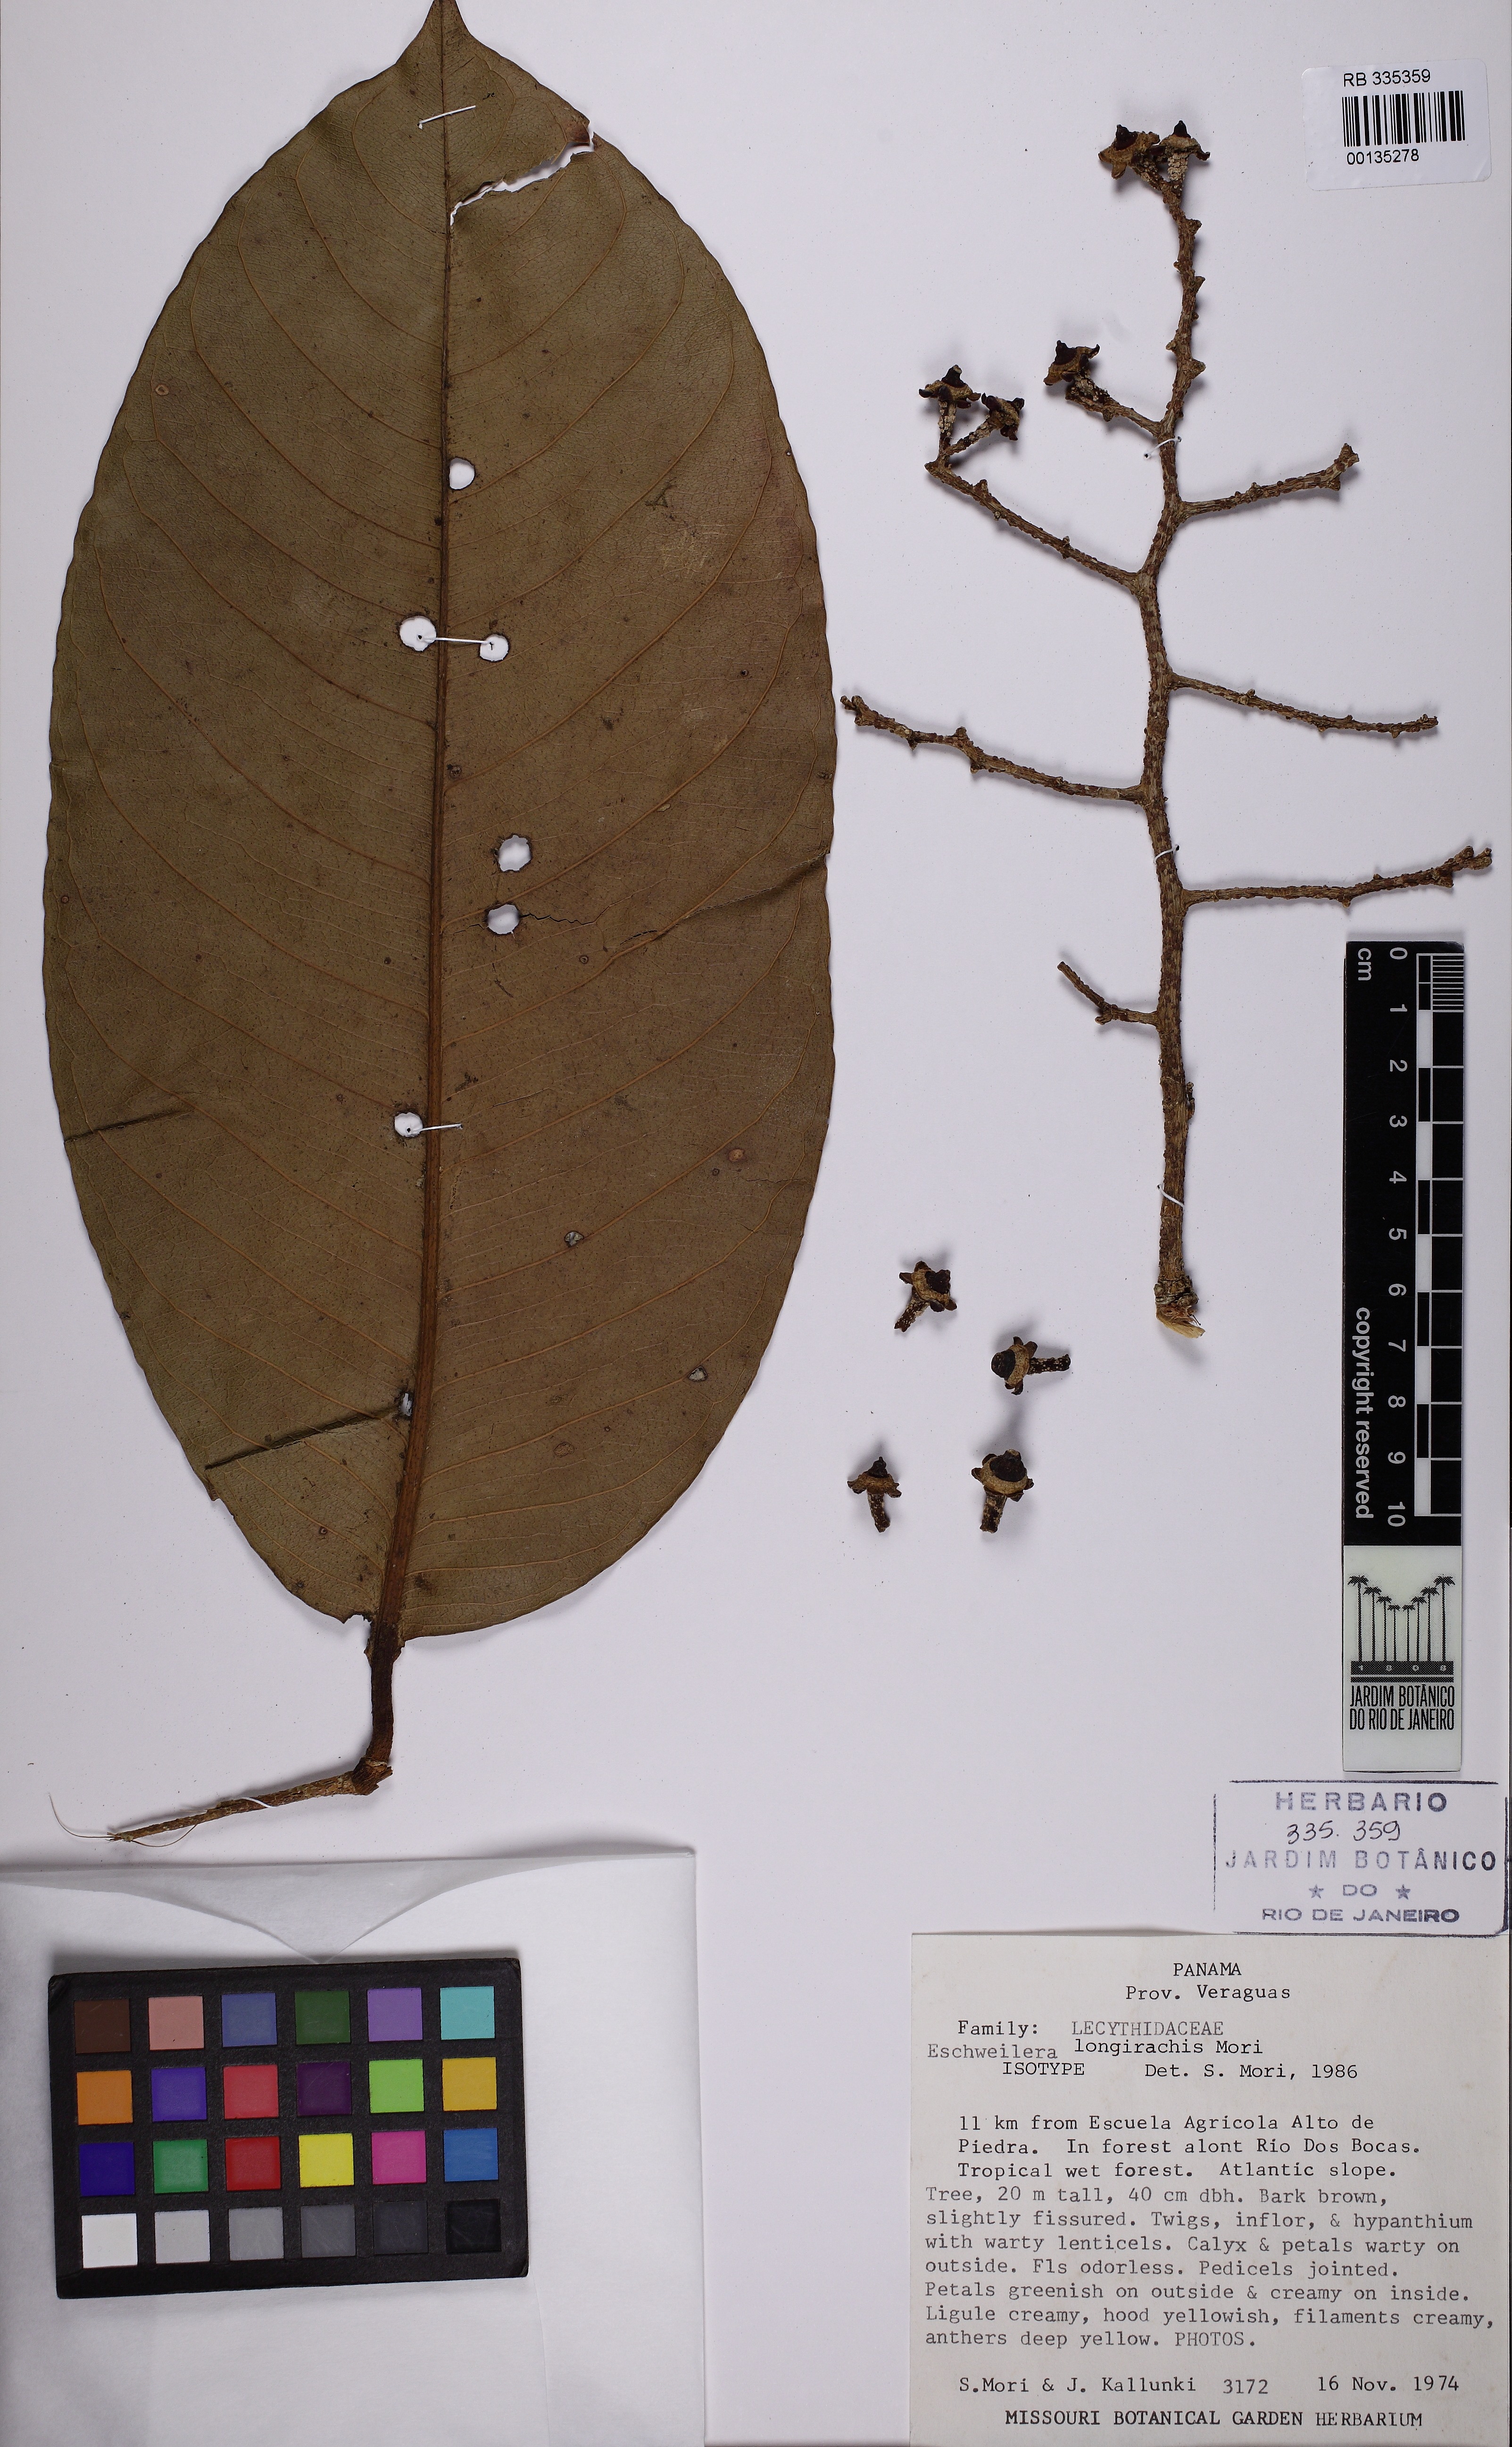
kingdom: Plantae
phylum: Tracheophyta
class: Magnoliopsida
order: Ericales
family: Lecythidaceae
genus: Eschweilera
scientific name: Eschweilera collinsii
